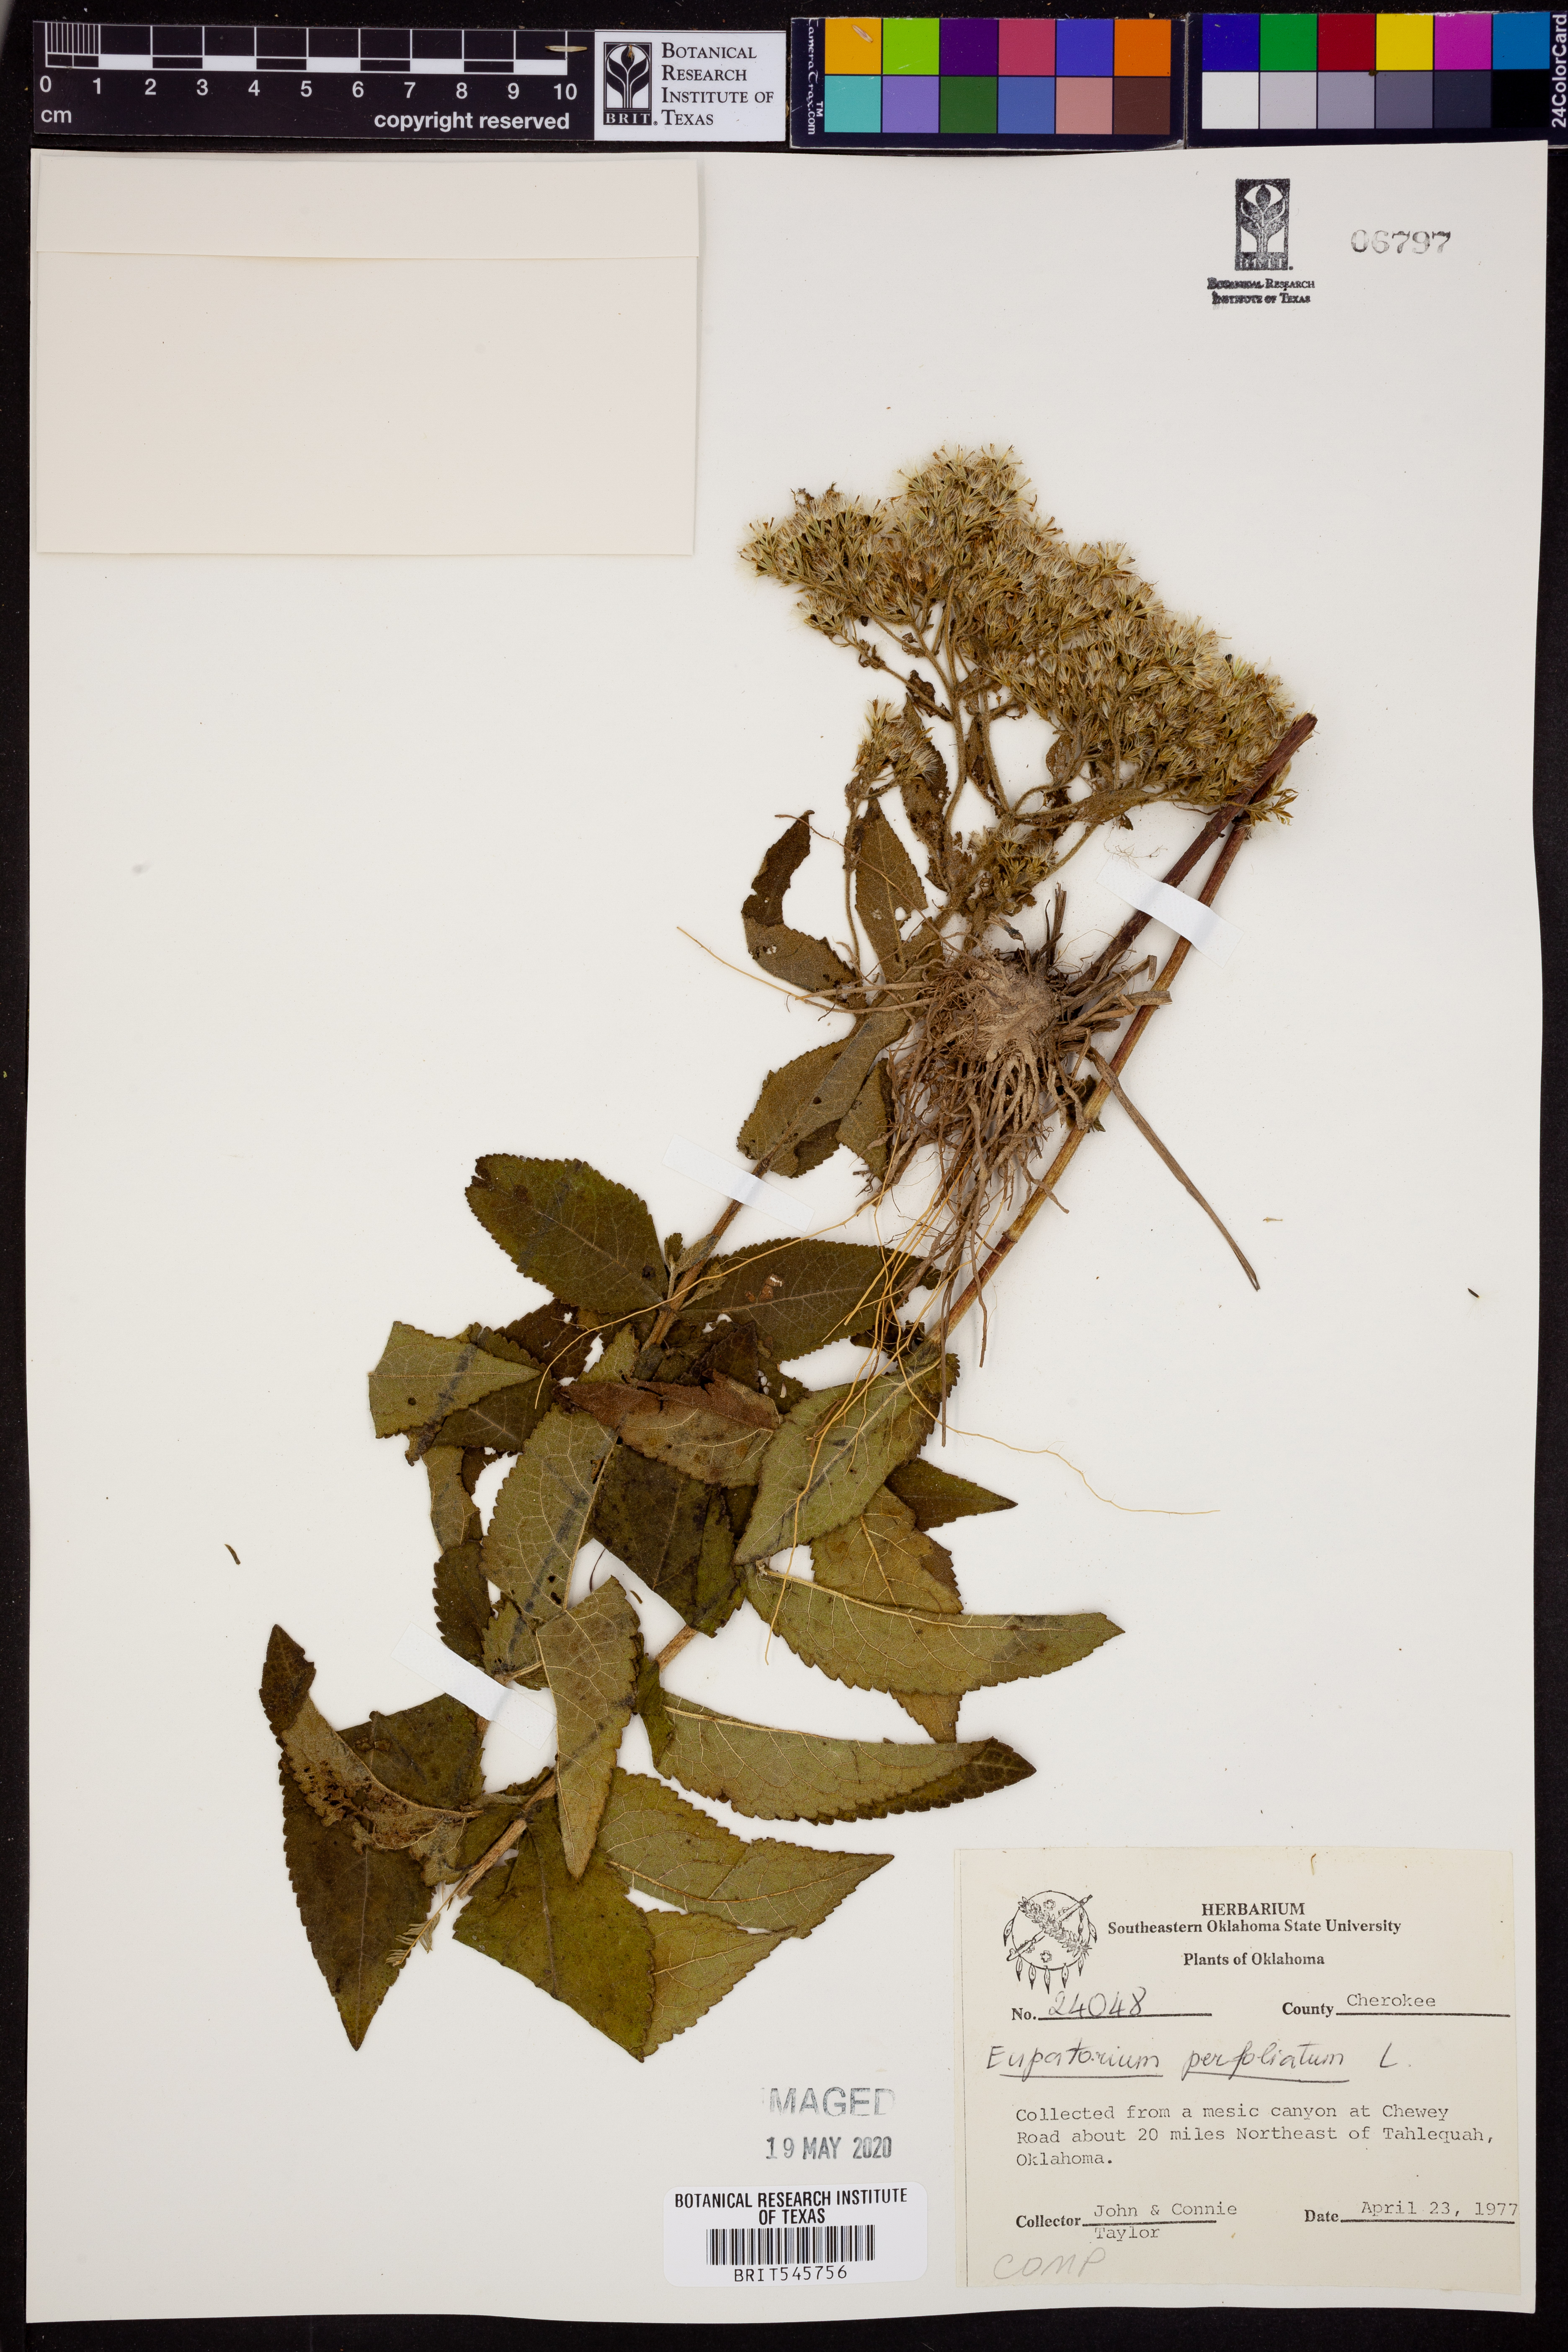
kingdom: Plantae
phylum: Tracheophyta
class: Magnoliopsida
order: Asterales
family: Asteraceae
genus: Eupatorium
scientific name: Eupatorium perfoliatum
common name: Boneset
